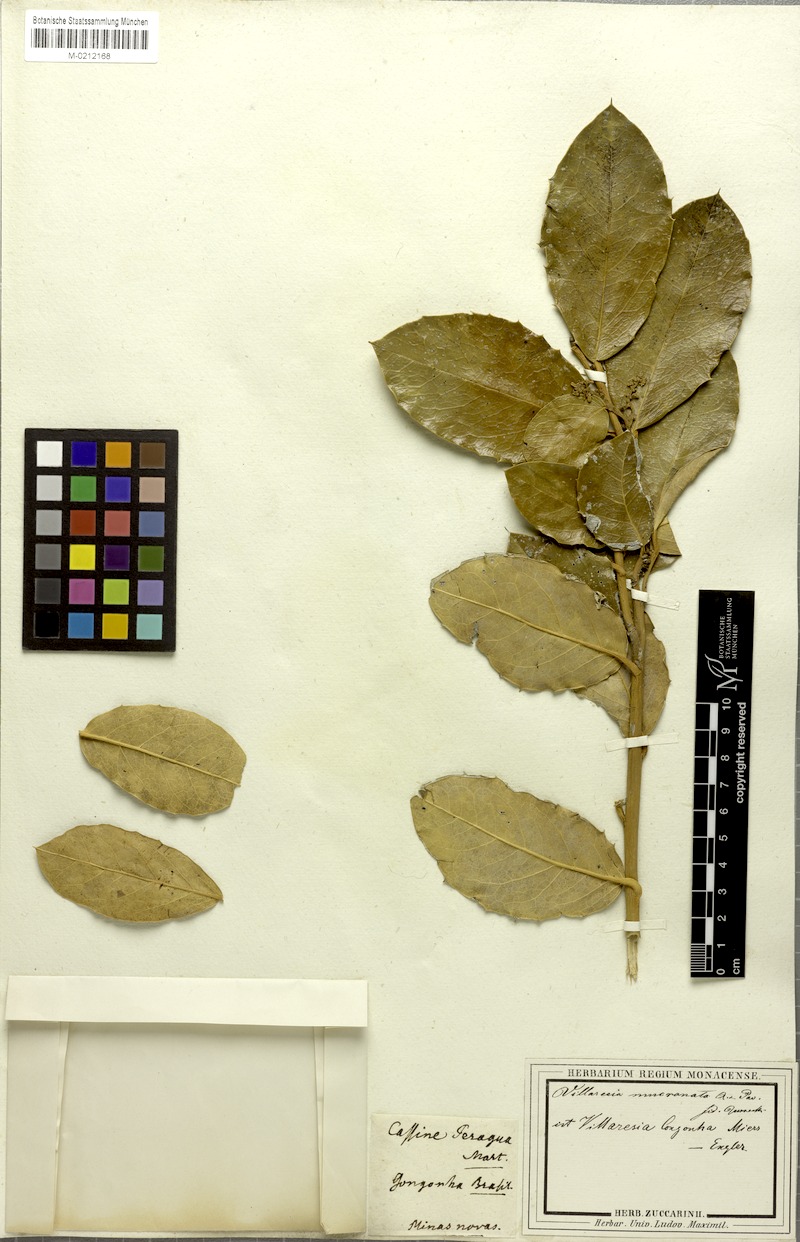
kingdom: Plantae
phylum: Tracheophyta
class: Magnoliopsida
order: Celastrales
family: Celastraceae
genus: Cassine
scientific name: Cassine peragua
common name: Cape saffron
